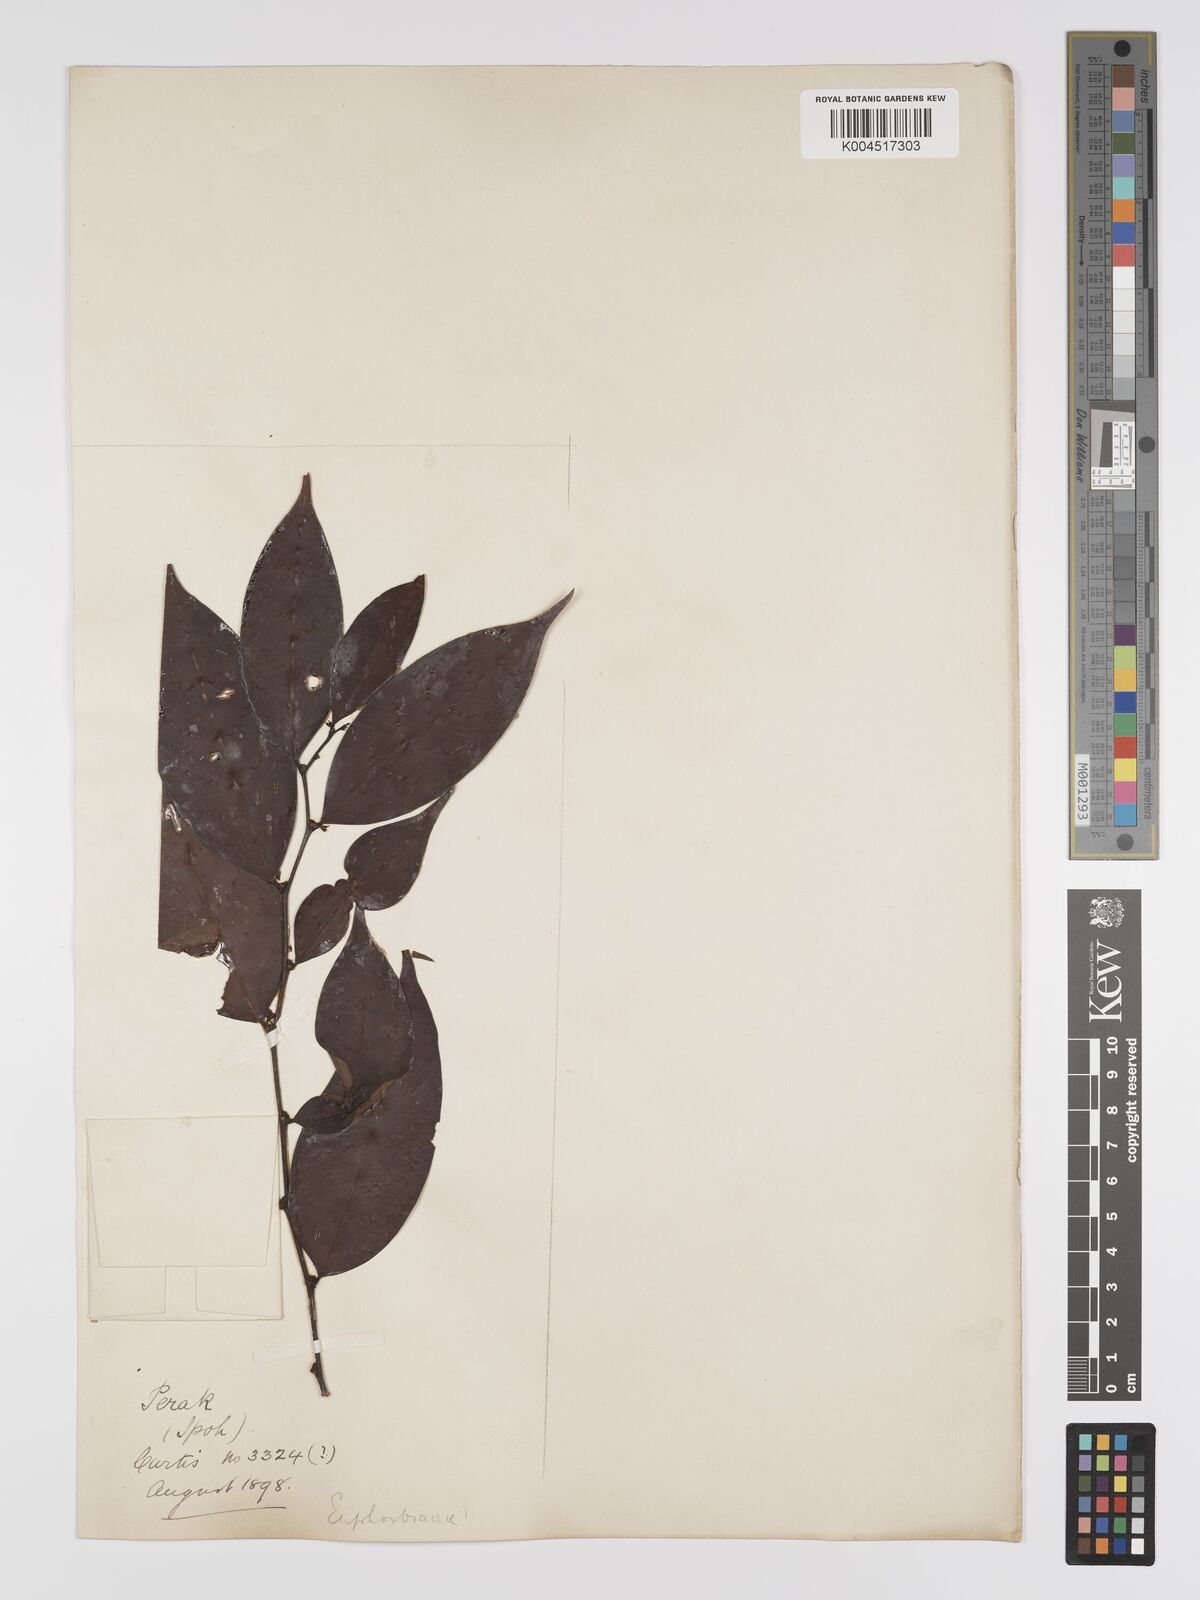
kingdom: Plantae
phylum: Tracheophyta
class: Magnoliopsida
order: Malpighiales
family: Phyllanthaceae
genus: Phyllanthus
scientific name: Phyllanthus roseus
